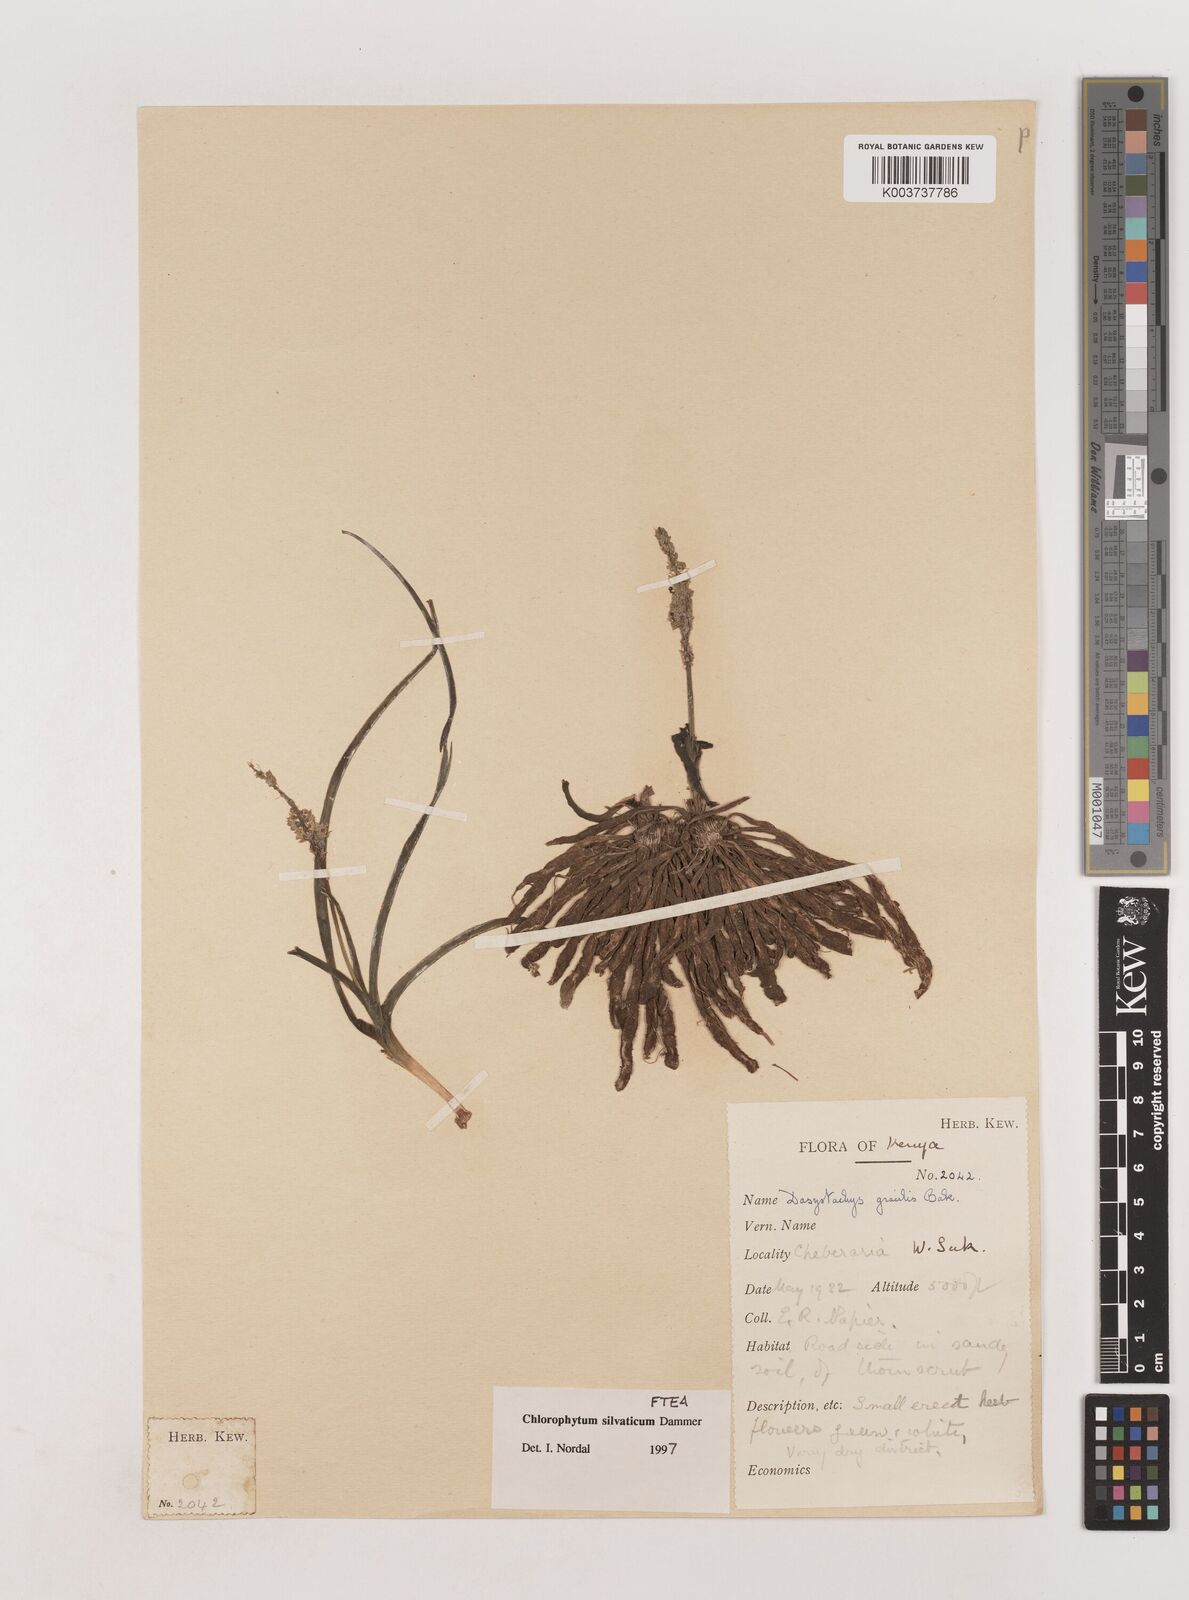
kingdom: Plantae
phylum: Tracheophyta
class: Liliopsida
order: Asparagales
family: Asparagaceae
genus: Chlorophytum
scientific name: Chlorophytum africanum
